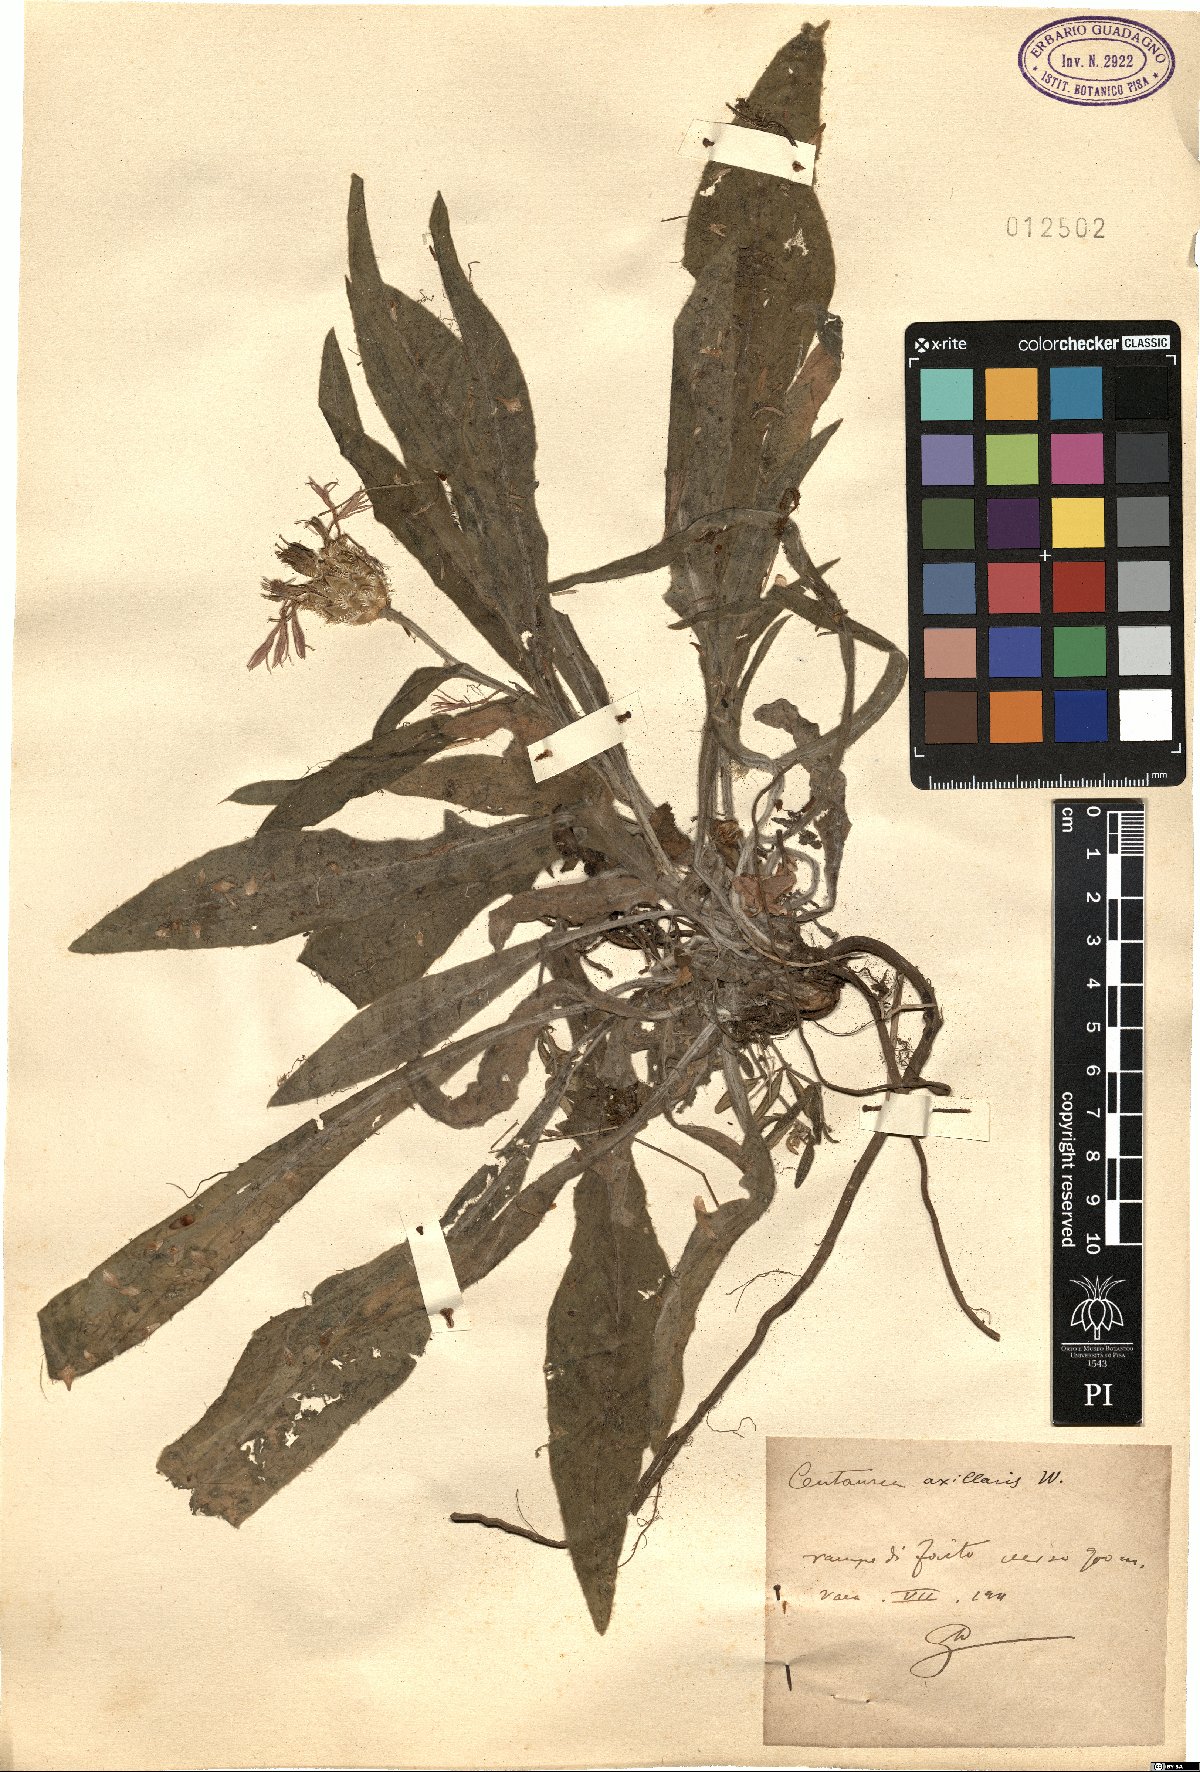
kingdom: Plantae
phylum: Tracheophyta
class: Magnoliopsida
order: Asterales
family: Asteraceae
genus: Centaurea
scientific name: Centaurea triumfettii
